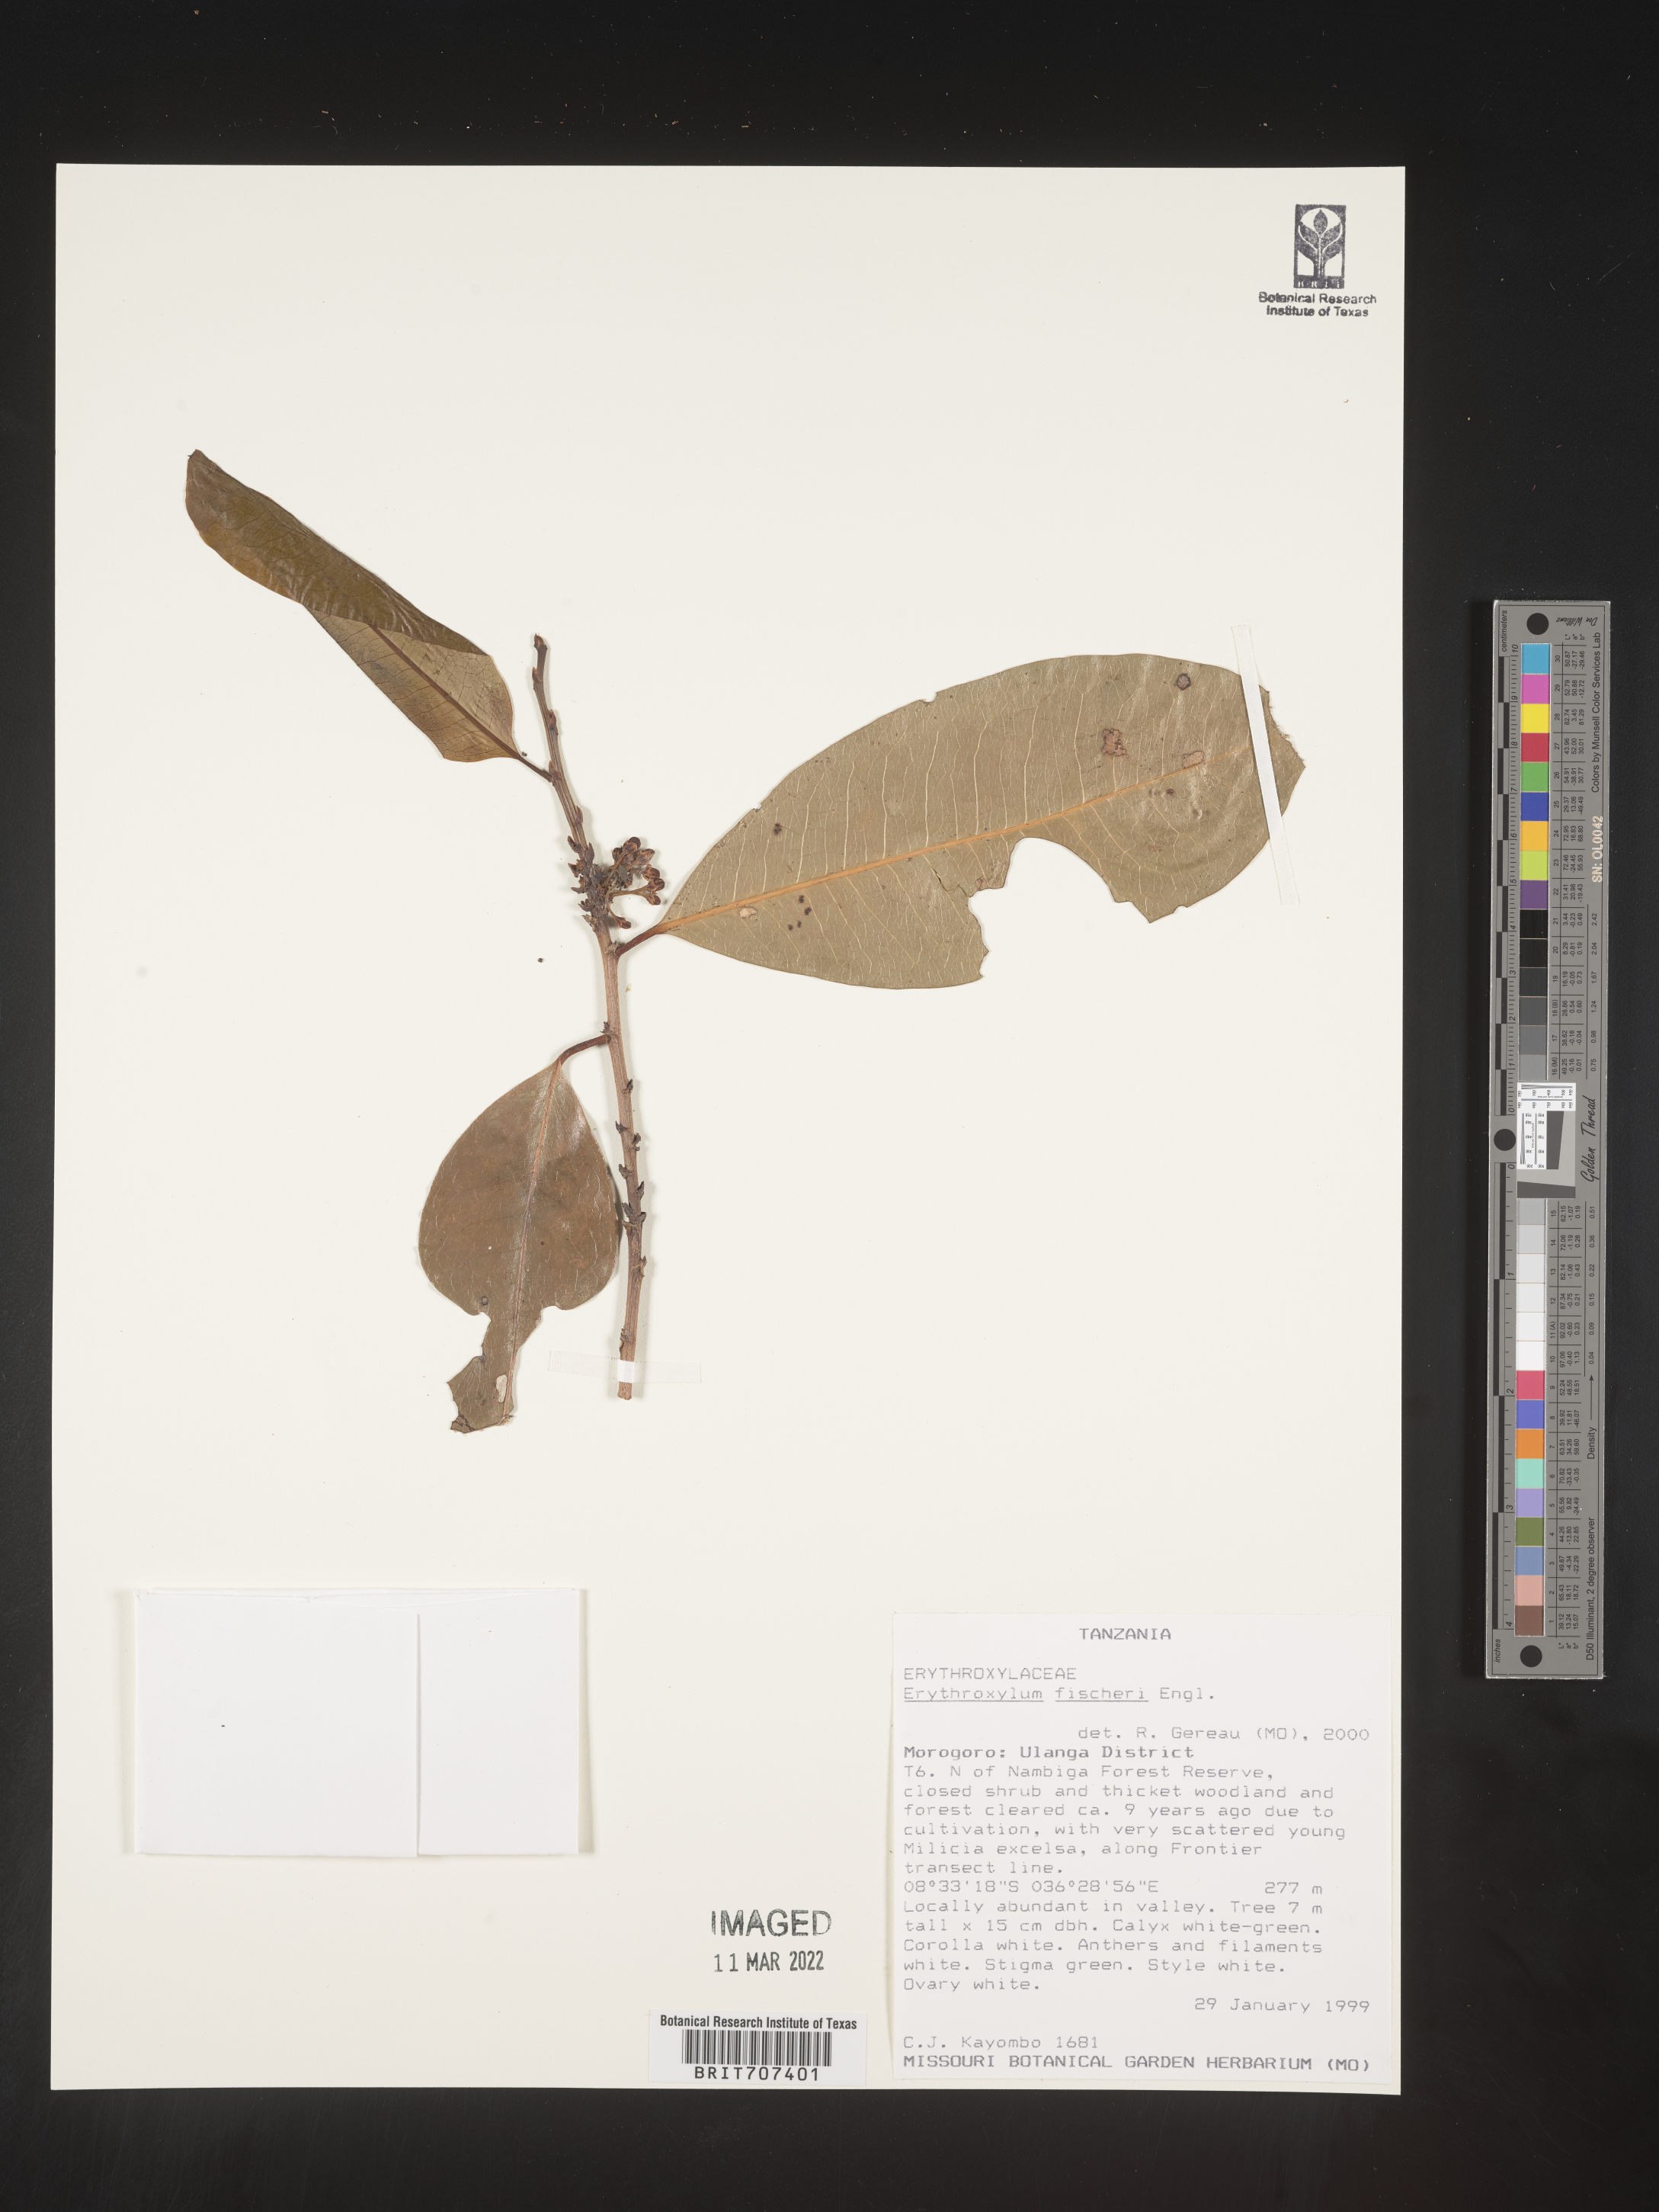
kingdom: Plantae
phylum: Tracheophyta
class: Magnoliopsida
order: Malpighiales
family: Erythroxylaceae
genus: Erythroxylum
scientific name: Erythroxylum
